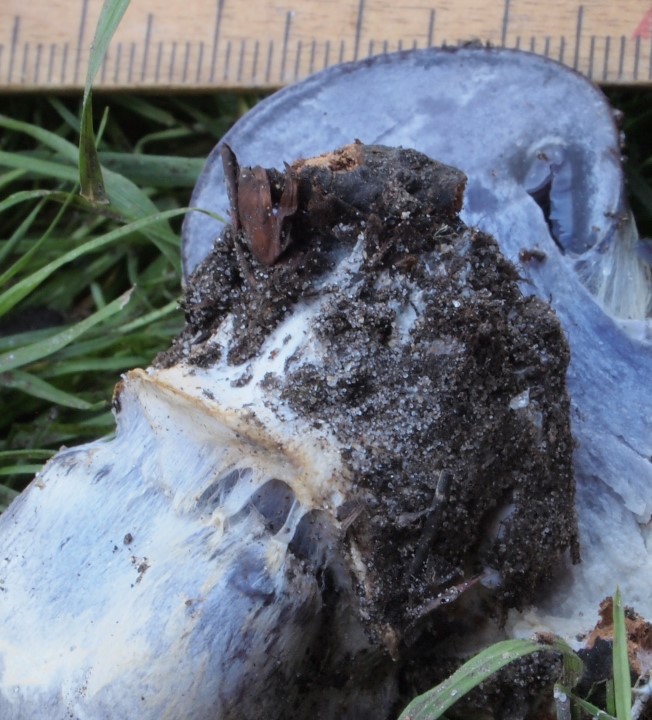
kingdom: Fungi
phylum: Basidiomycota
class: Agaricomycetes
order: Agaricales
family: Cortinariaceae
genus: Cortinarius
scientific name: Cortinarius caerulescens
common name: blåkødet slørhat
